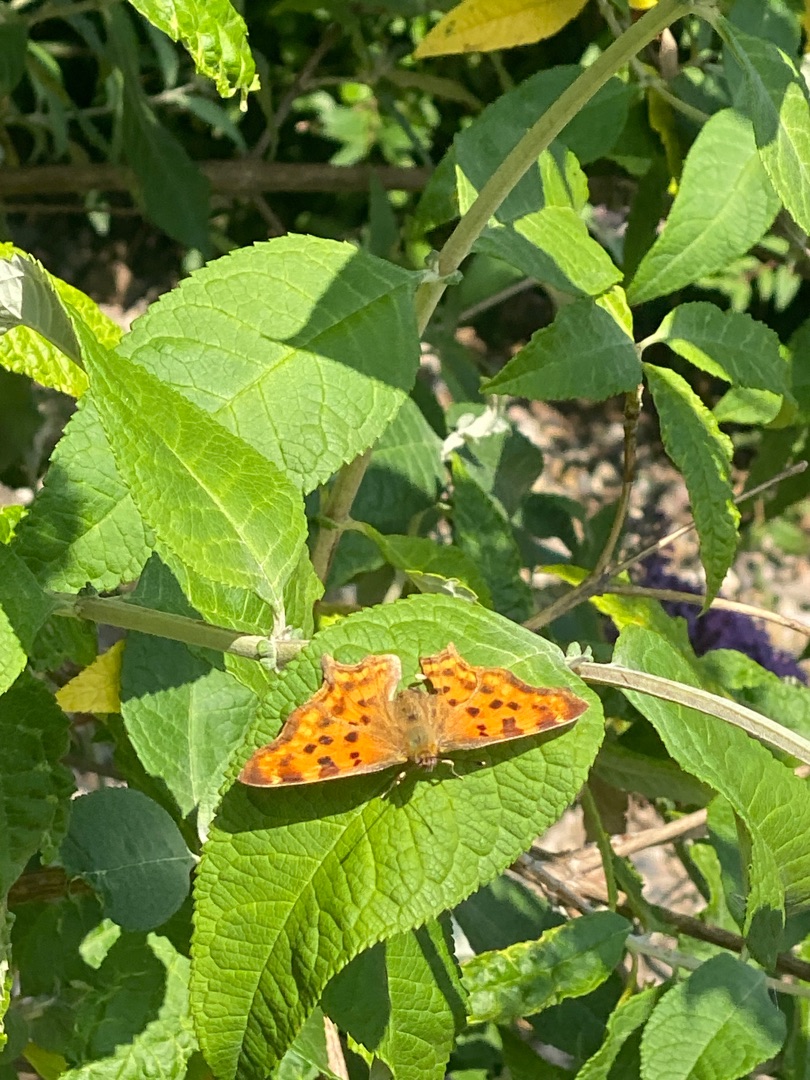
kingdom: Animalia
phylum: Arthropoda
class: Insecta
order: Lepidoptera
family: Nymphalidae
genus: Polygonia
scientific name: Polygonia c-album
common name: Det hvide C
